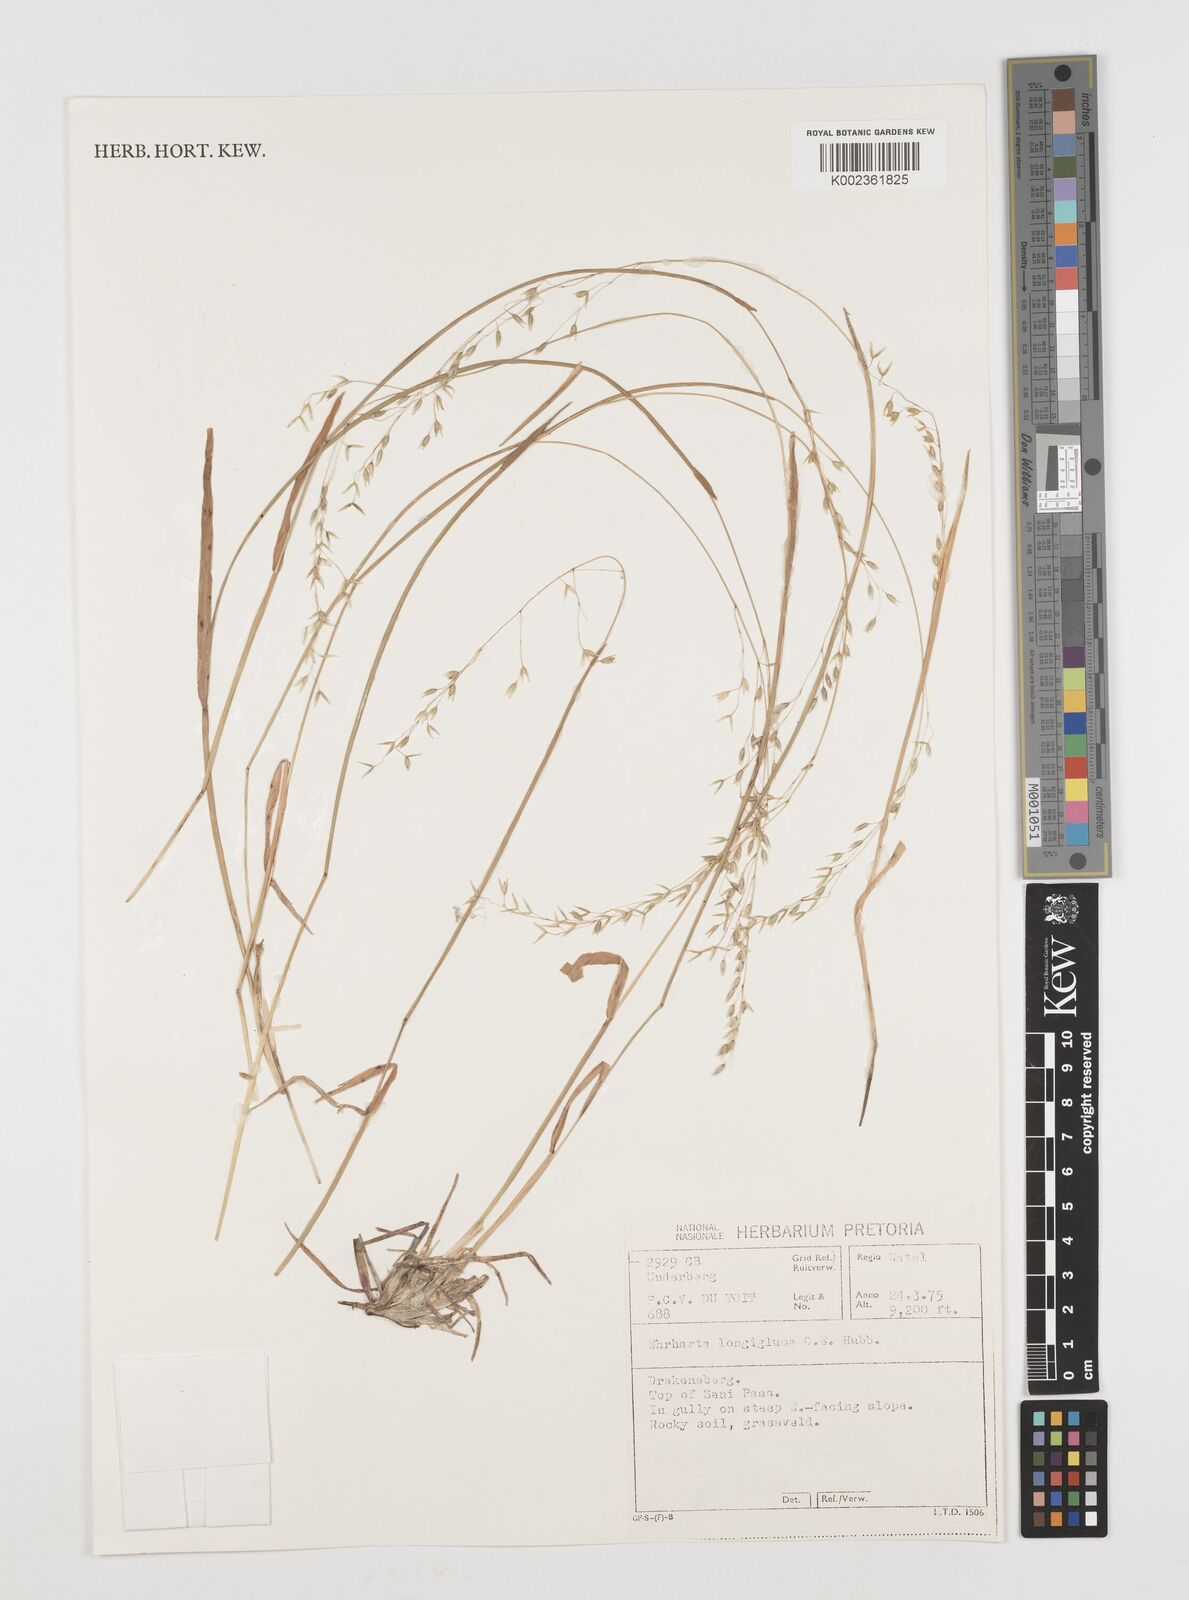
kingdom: Plantae
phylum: Tracheophyta
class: Liliopsida
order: Poales
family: Poaceae
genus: Ehrharta
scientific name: Ehrharta longigluma
